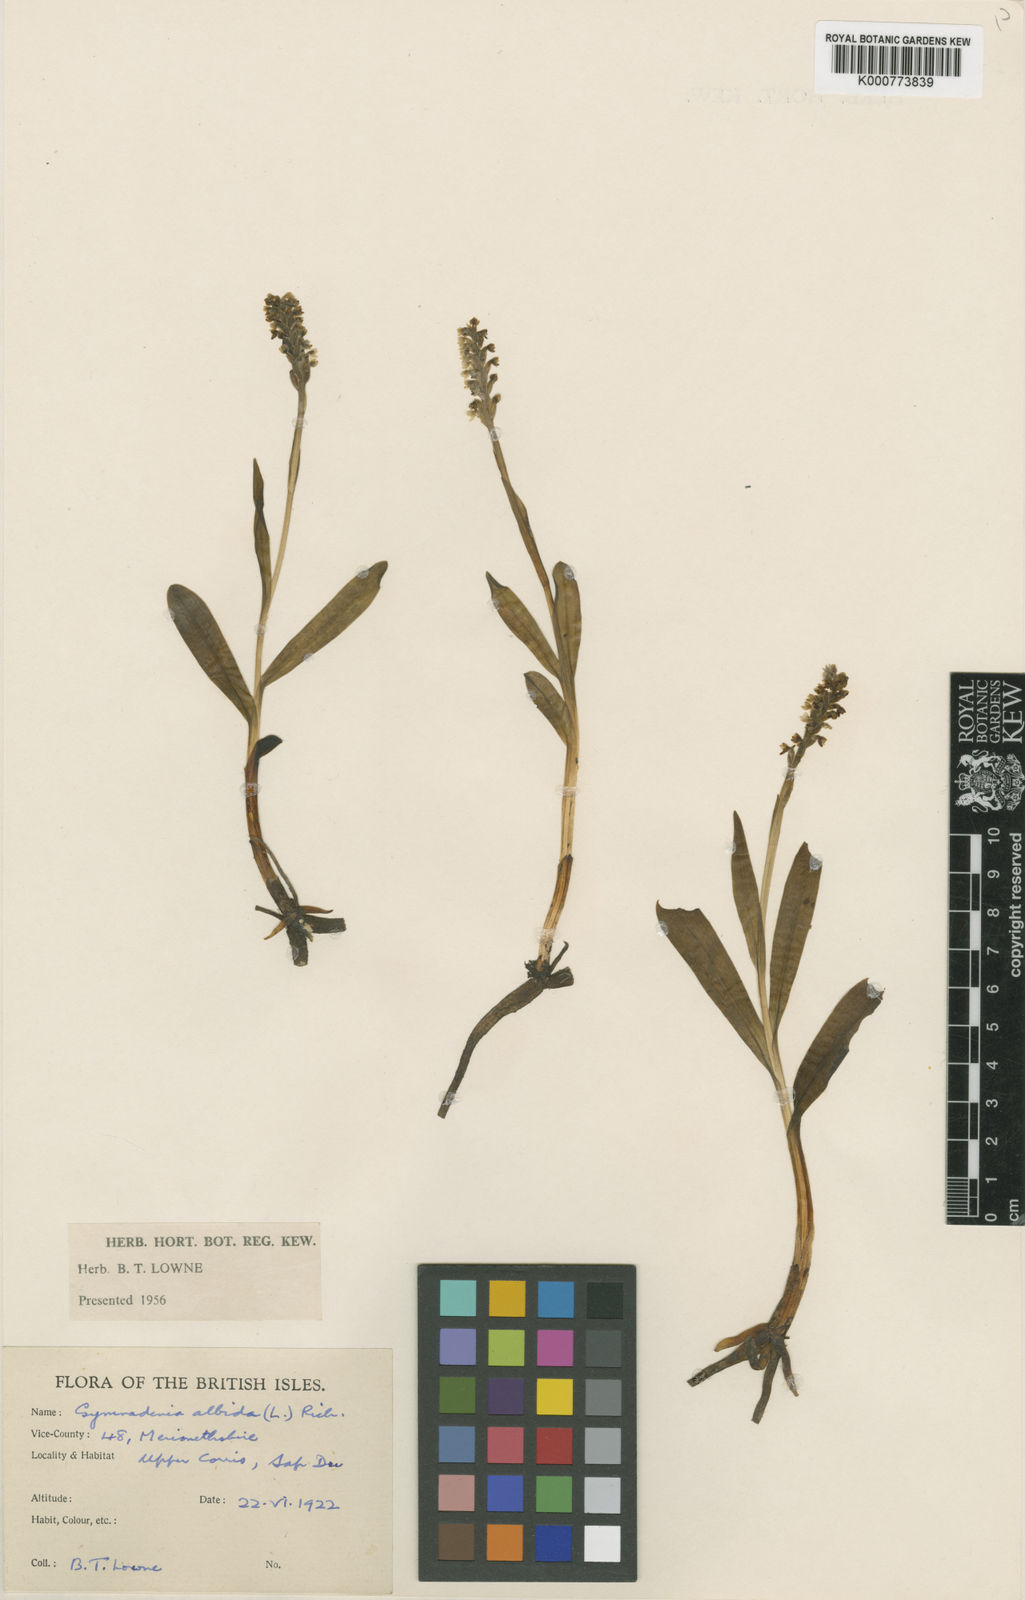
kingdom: Plantae
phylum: Tracheophyta
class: Liliopsida
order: Asparagales
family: Orchidaceae
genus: Pseudorchis
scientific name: Pseudorchis
